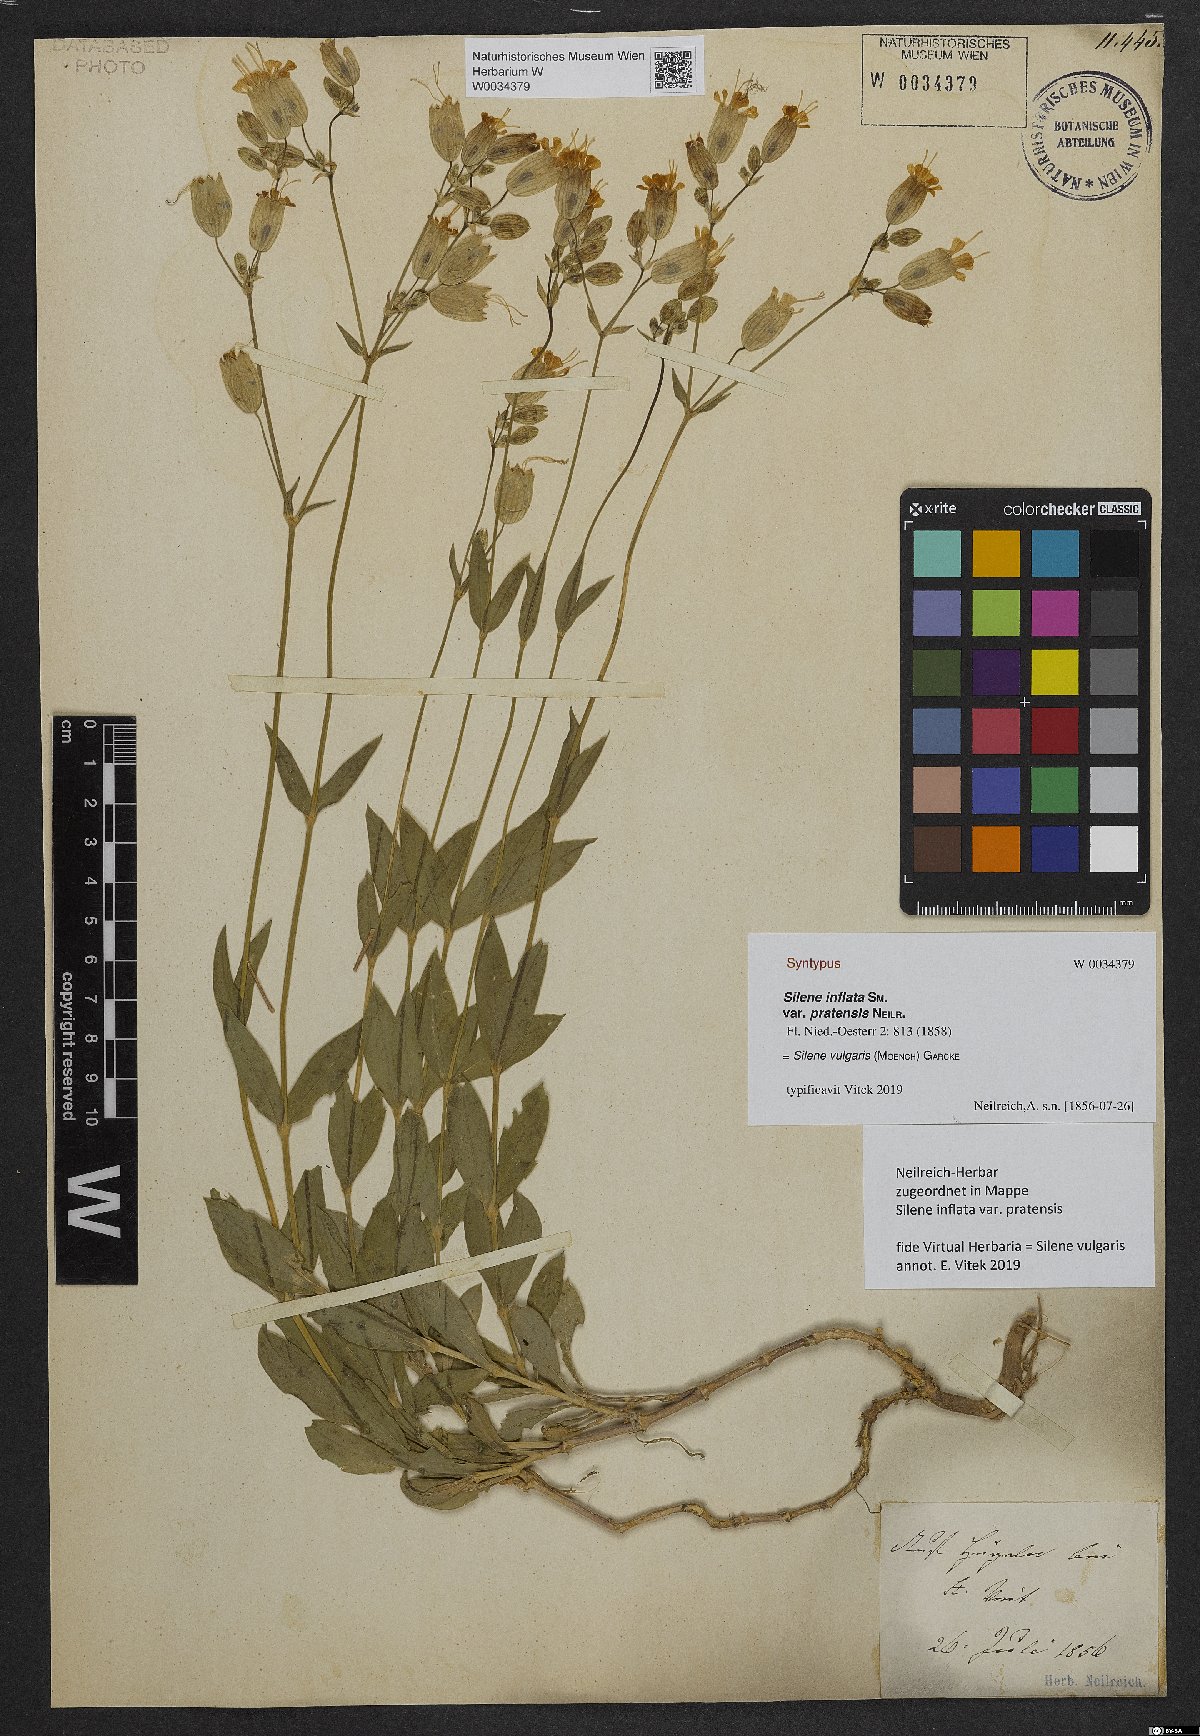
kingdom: Plantae
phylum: Tracheophyta
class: Magnoliopsida
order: Caryophyllales
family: Caryophyllaceae
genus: Silene
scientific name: Silene vulgaris
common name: Bladder campion
